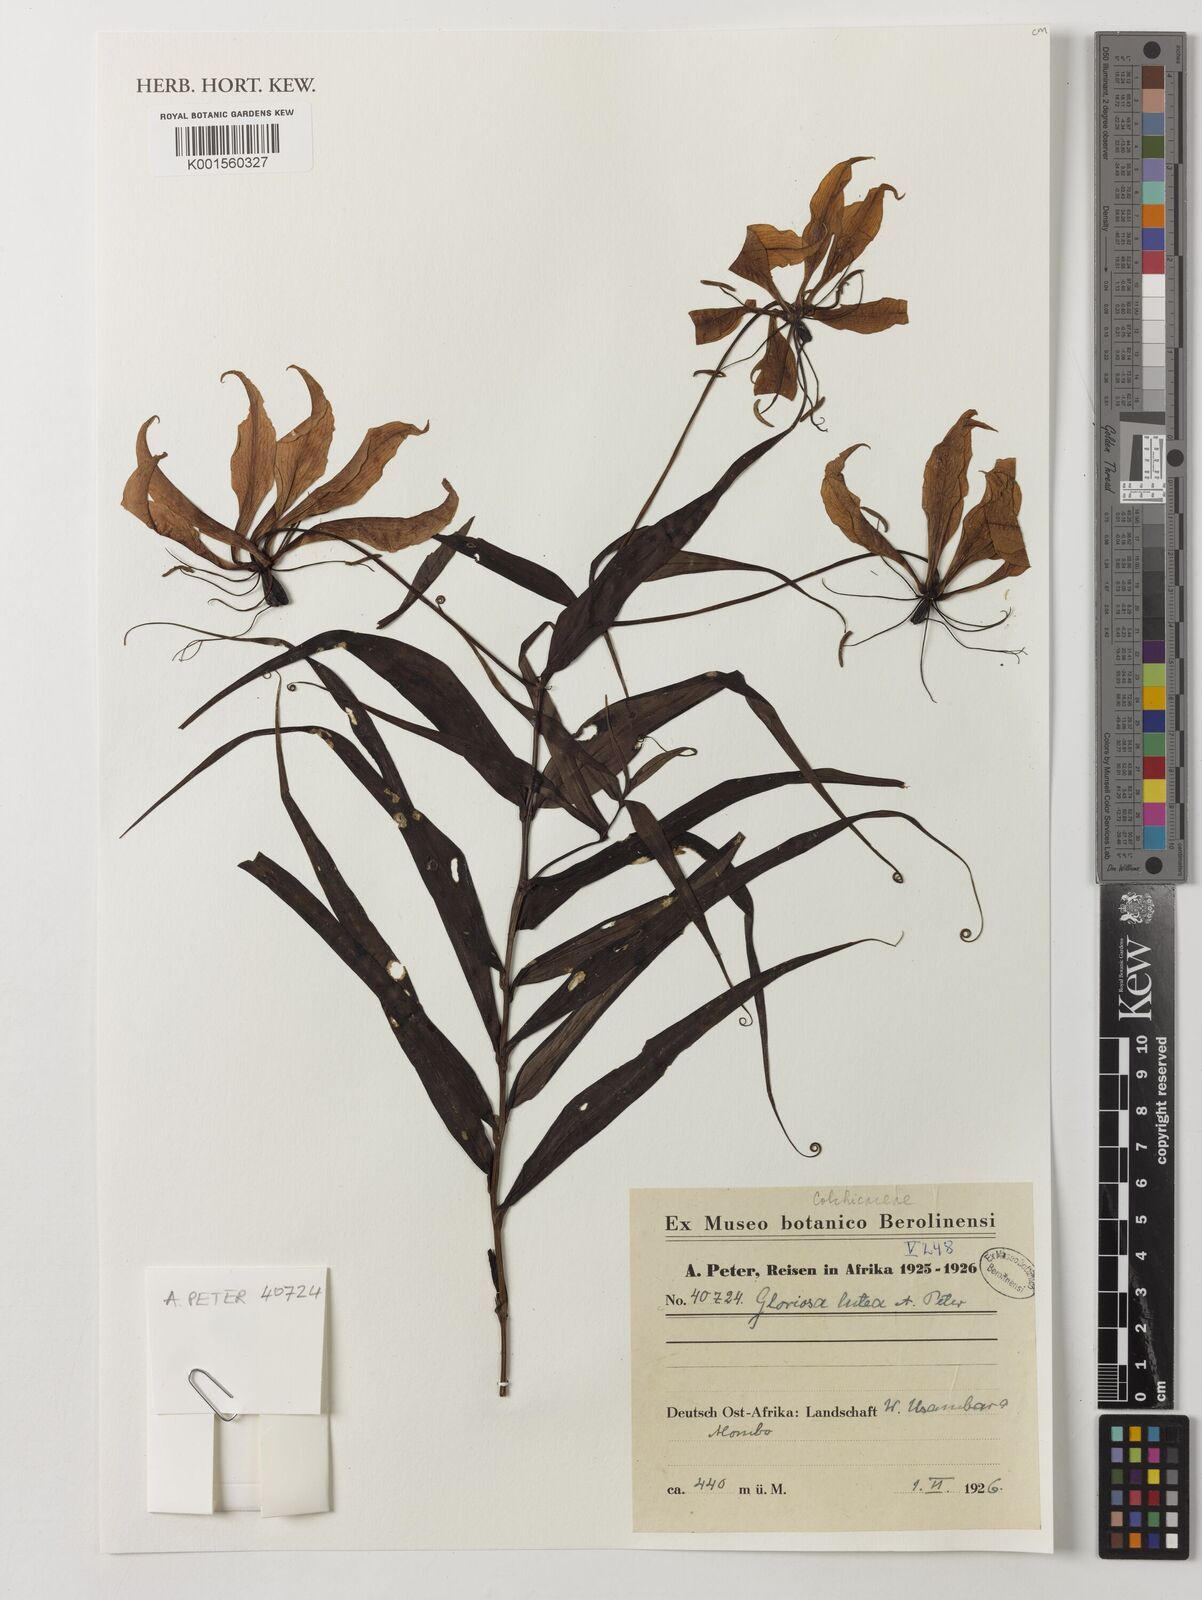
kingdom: Plantae
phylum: Tracheophyta
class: Liliopsida
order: Liliales
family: Colchicaceae
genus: Gloriosa
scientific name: Gloriosa
